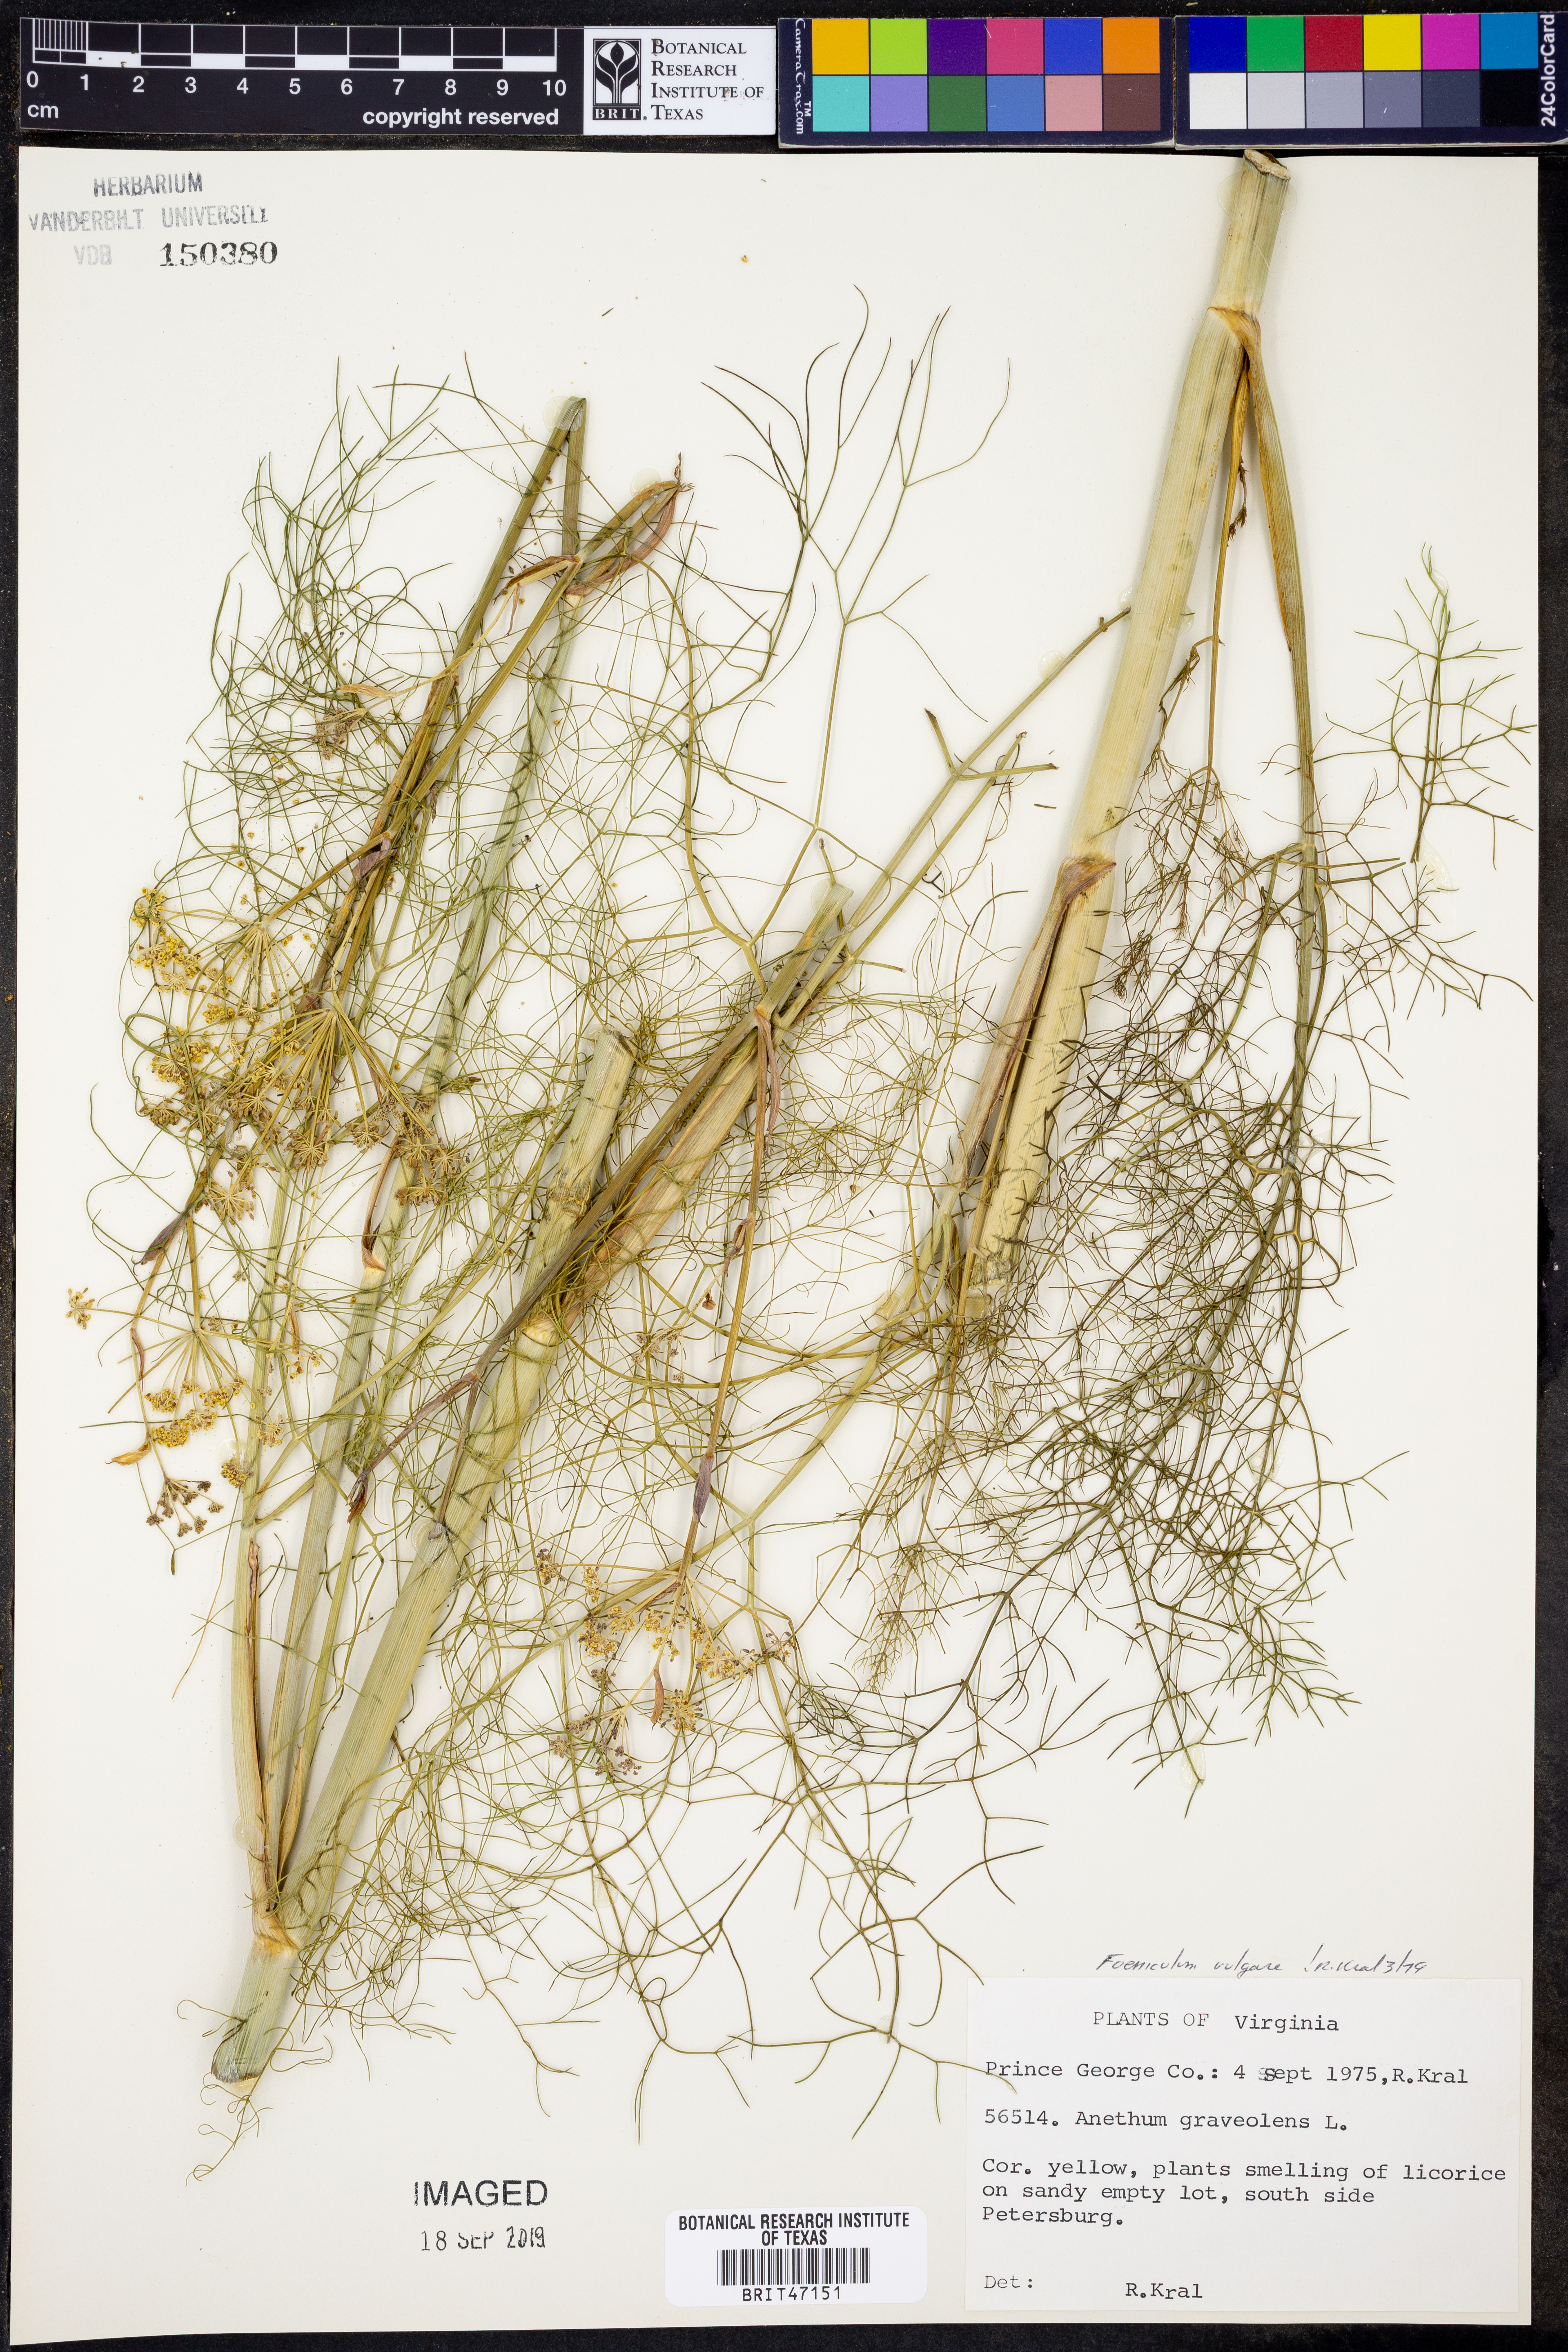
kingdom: Plantae
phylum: Tracheophyta
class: Magnoliopsida
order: Apiales
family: Apiaceae
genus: Foeniculum
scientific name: Foeniculum vulgare
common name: Fennel
